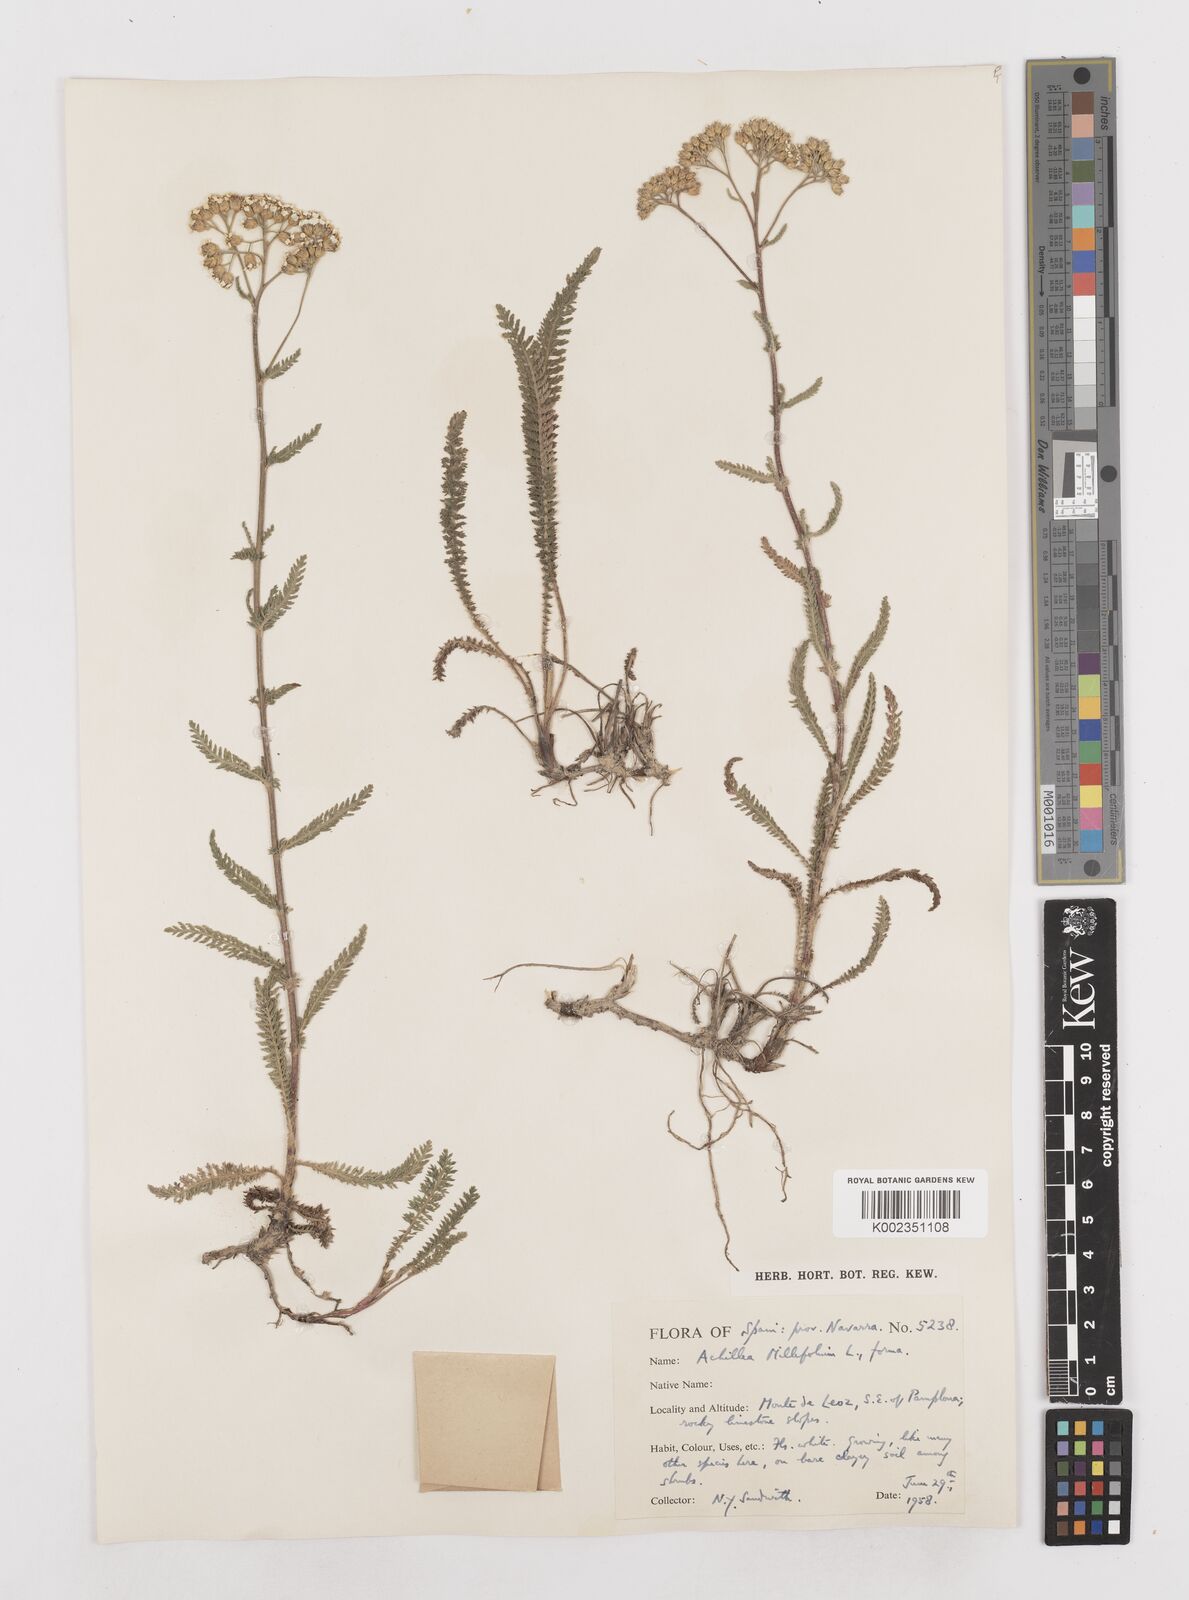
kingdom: Plantae
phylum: Tracheophyta
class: Magnoliopsida
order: Asterales
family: Asteraceae
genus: Achillea
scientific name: Achillea millefolium
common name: Yarrow
